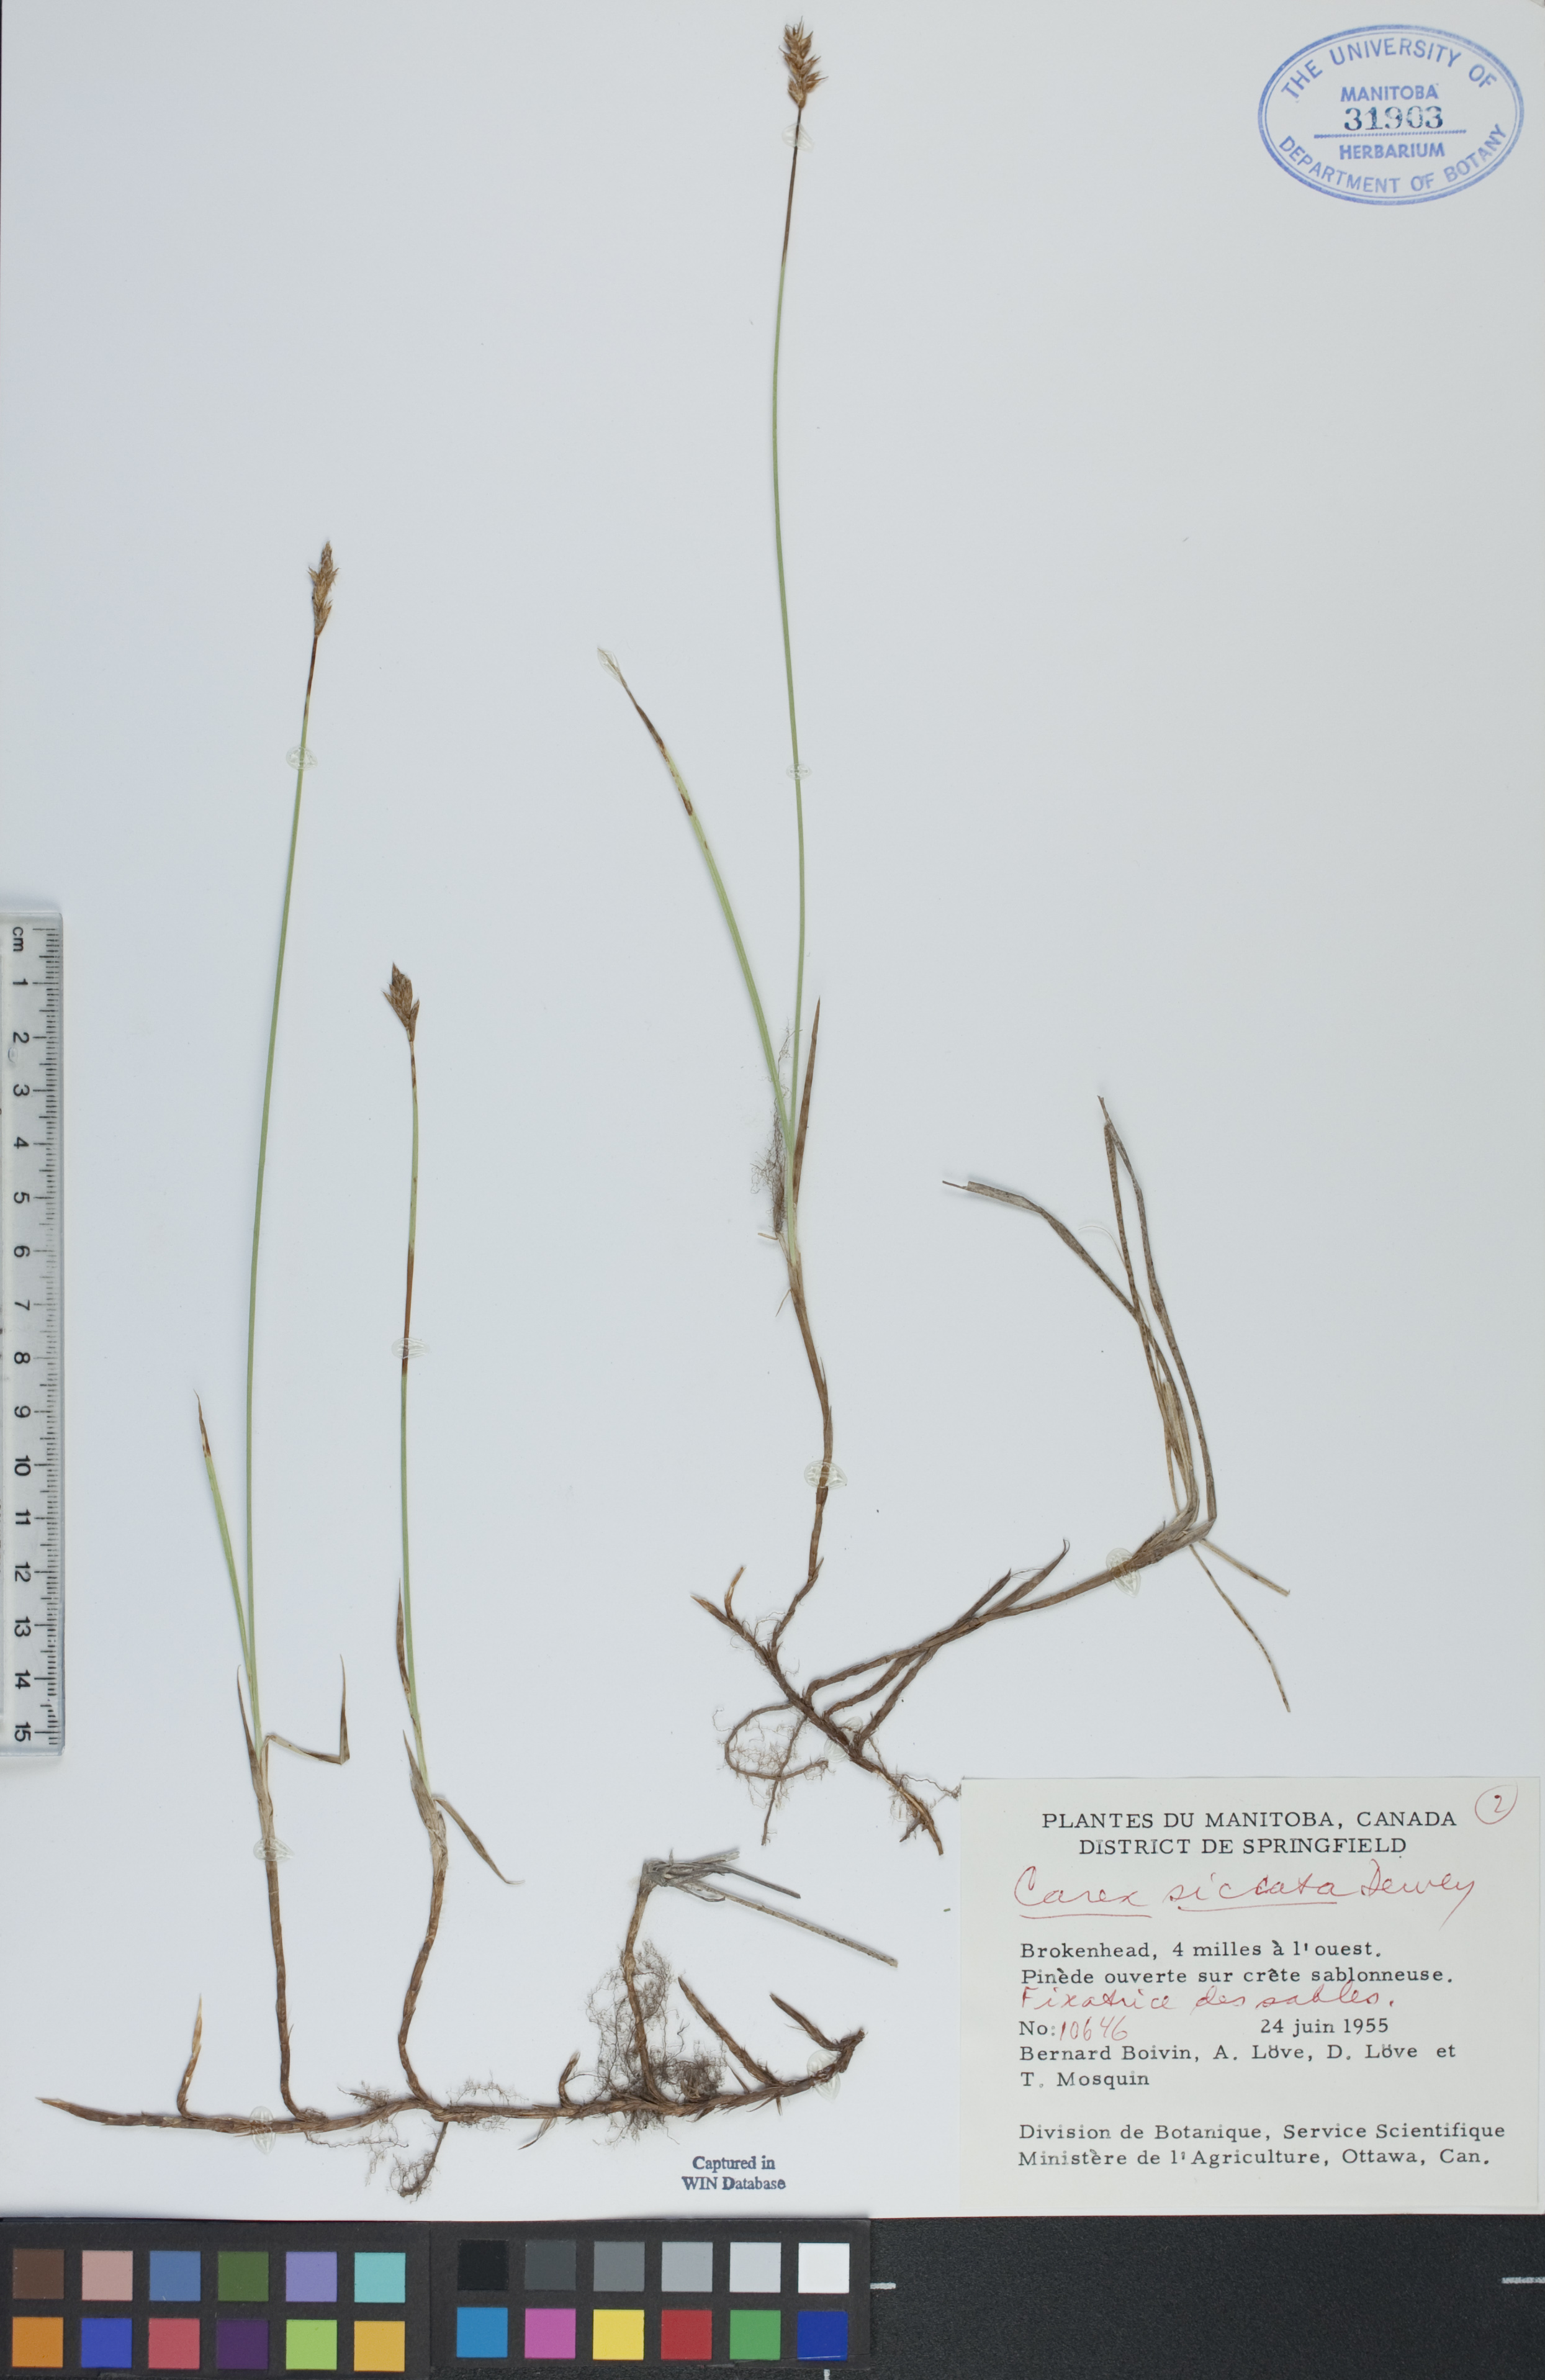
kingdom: Plantae
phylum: Tracheophyta
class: Liliopsida
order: Poales
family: Cyperaceae
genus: Carex
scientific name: Carex siccata
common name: Dry sedge
